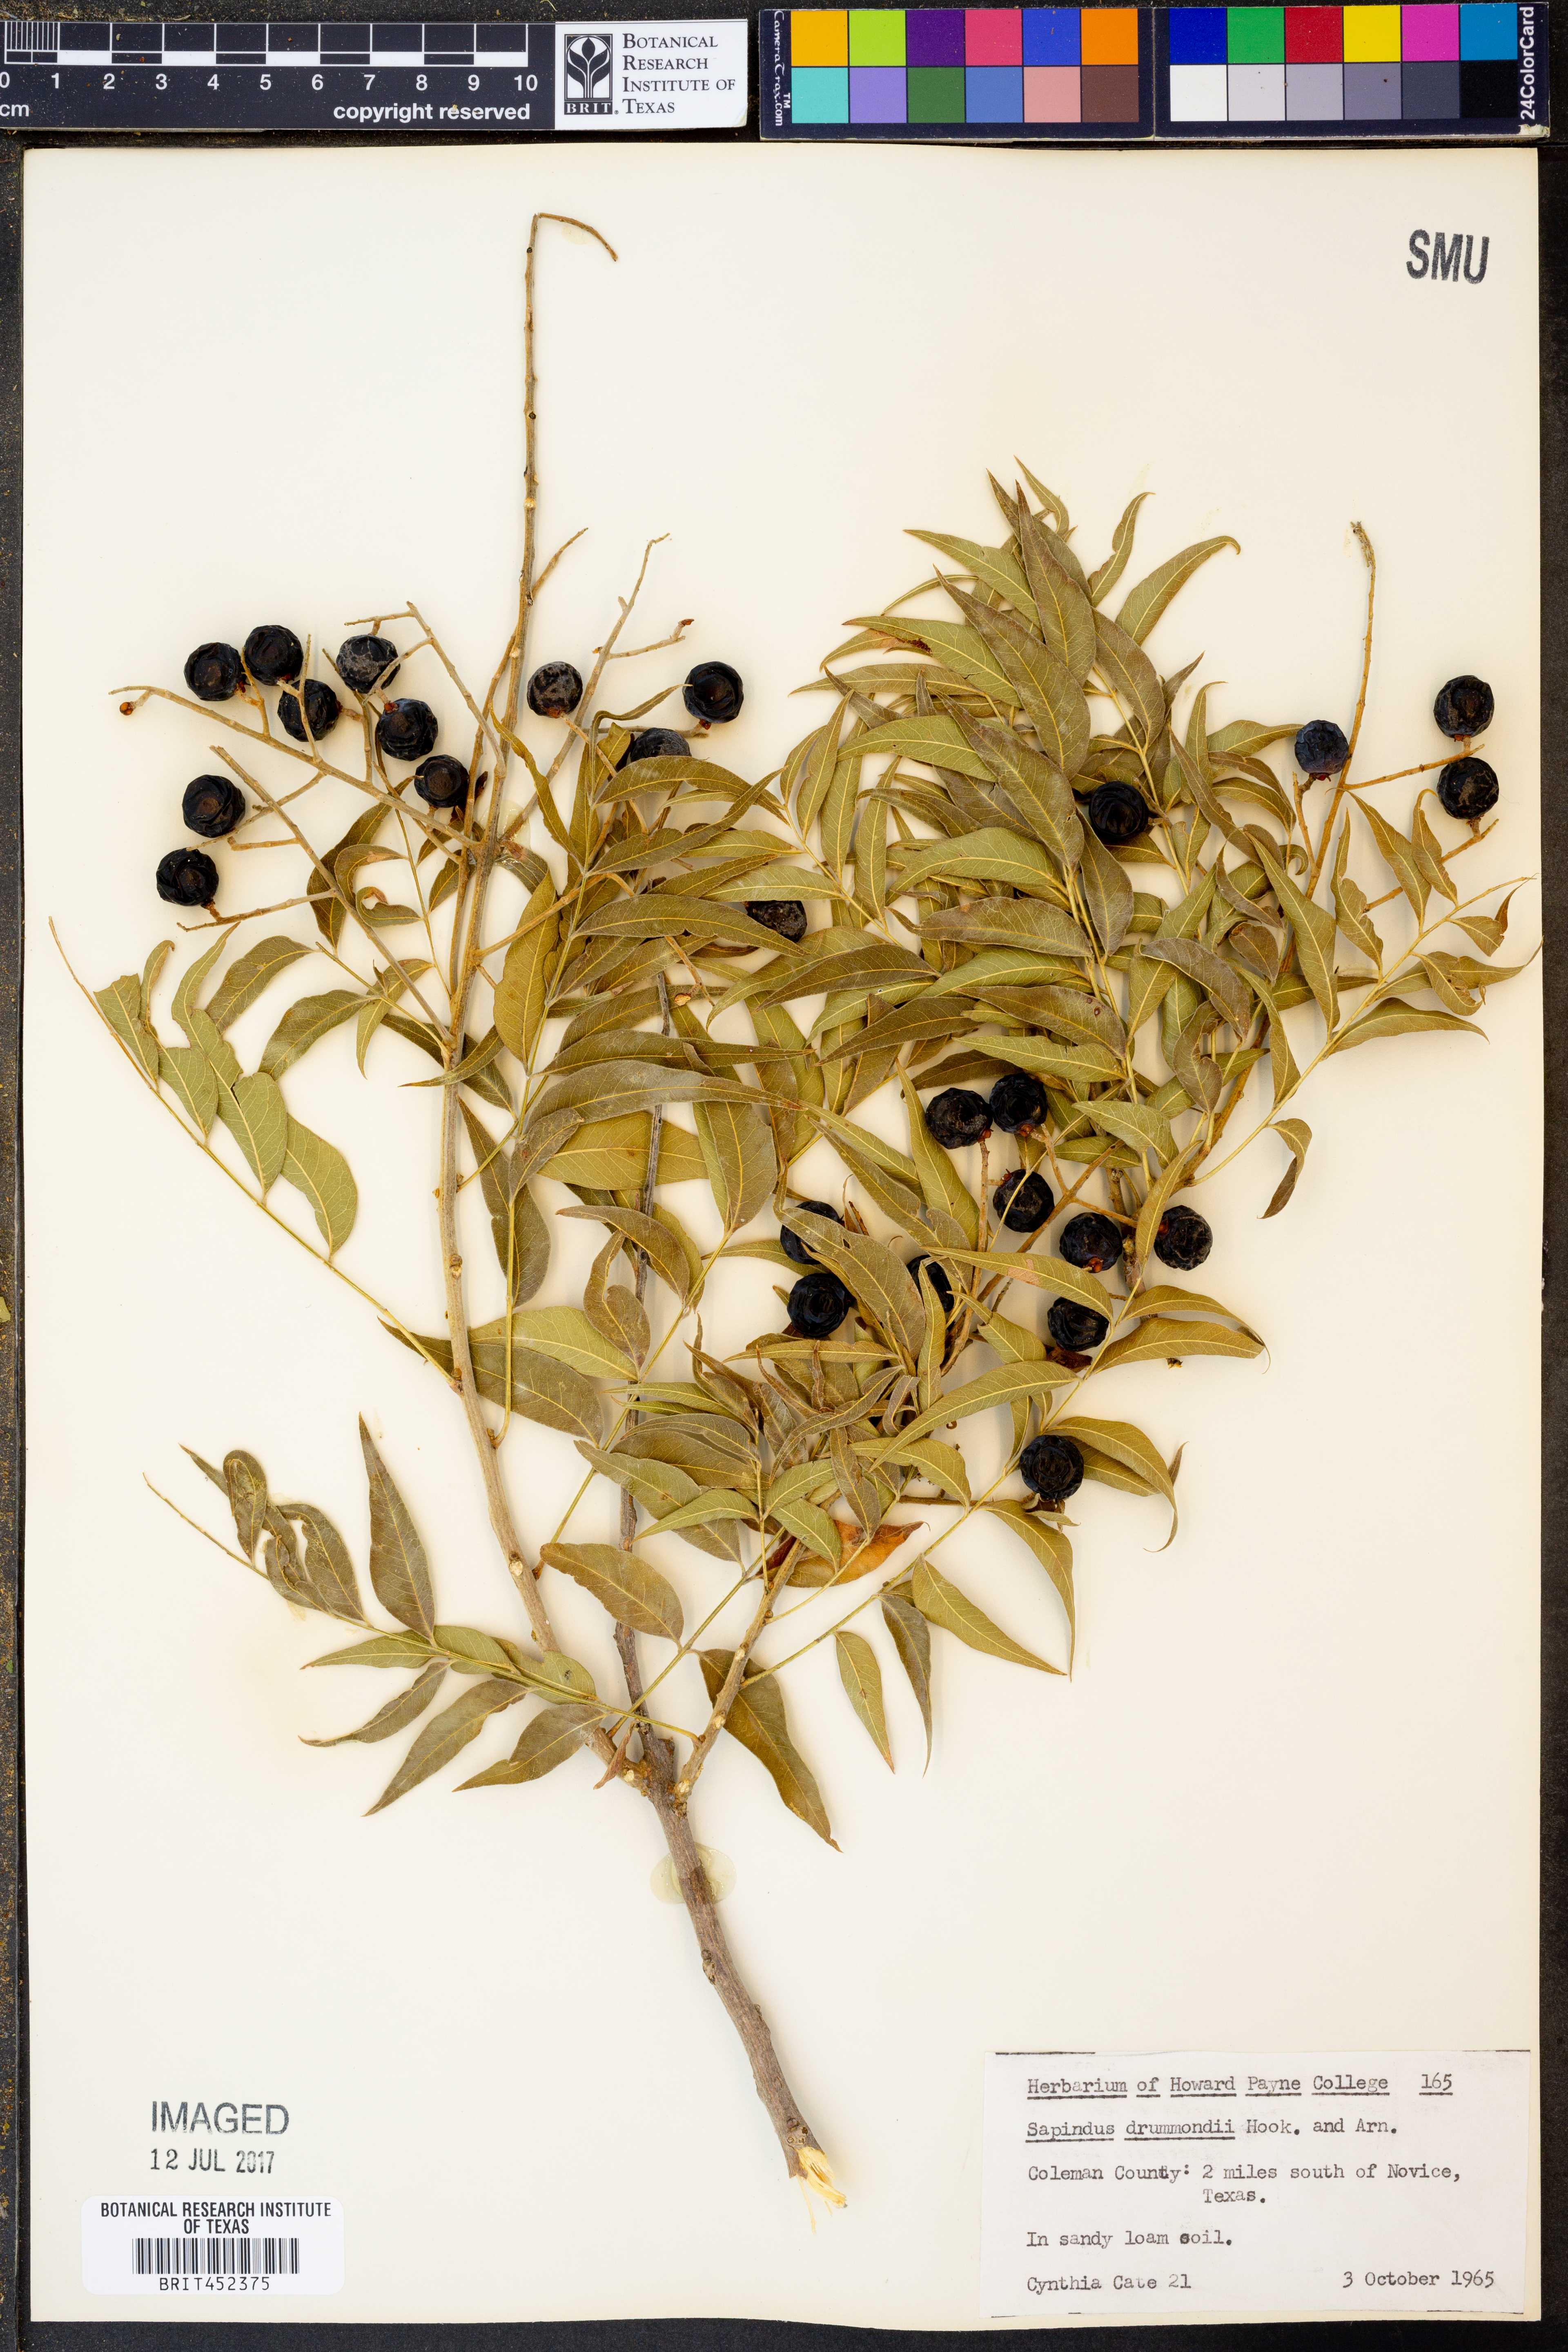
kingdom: Plantae
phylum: Tracheophyta
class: Magnoliopsida
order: Sapindales
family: Sapindaceae
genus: Sapindus
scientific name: Sapindus drummondii
